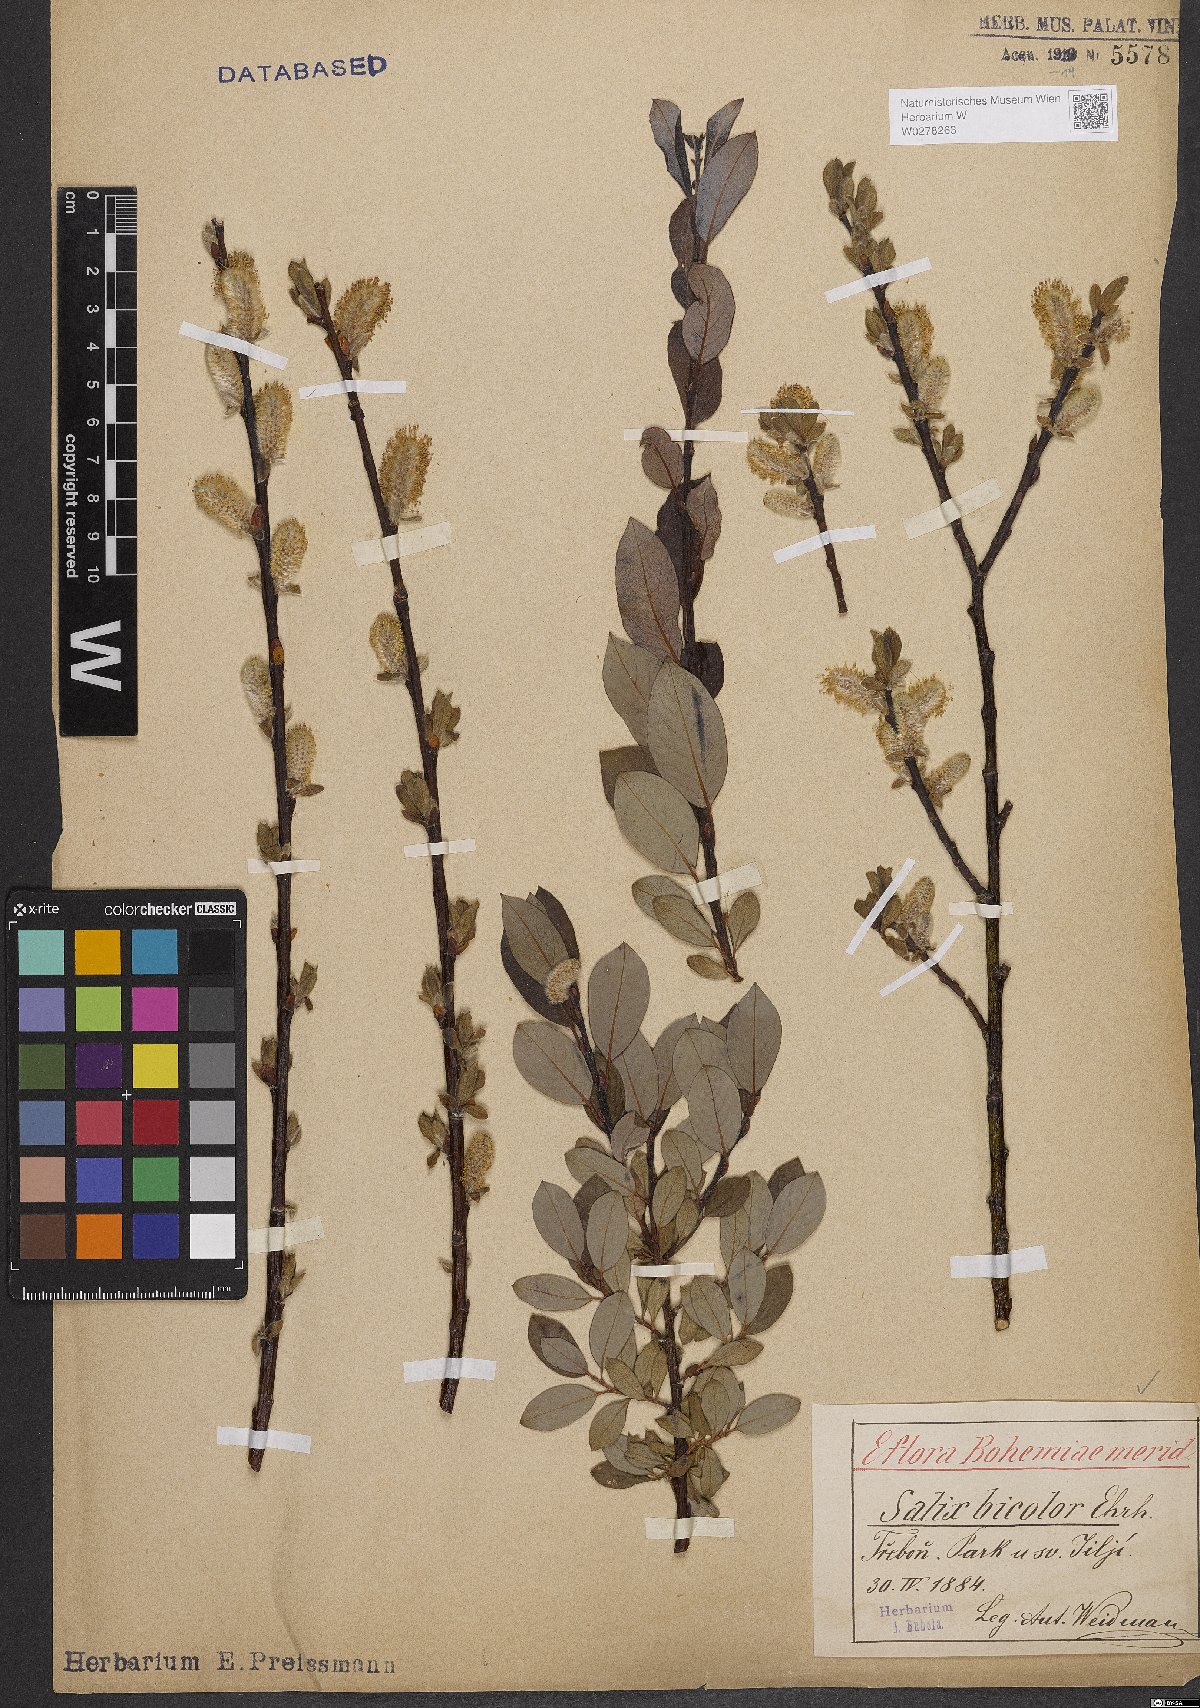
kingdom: Plantae
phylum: Tracheophyta
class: Magnoliopsida
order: Malpighiales
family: Salicaceae
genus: Salix
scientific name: Salix bicolor
